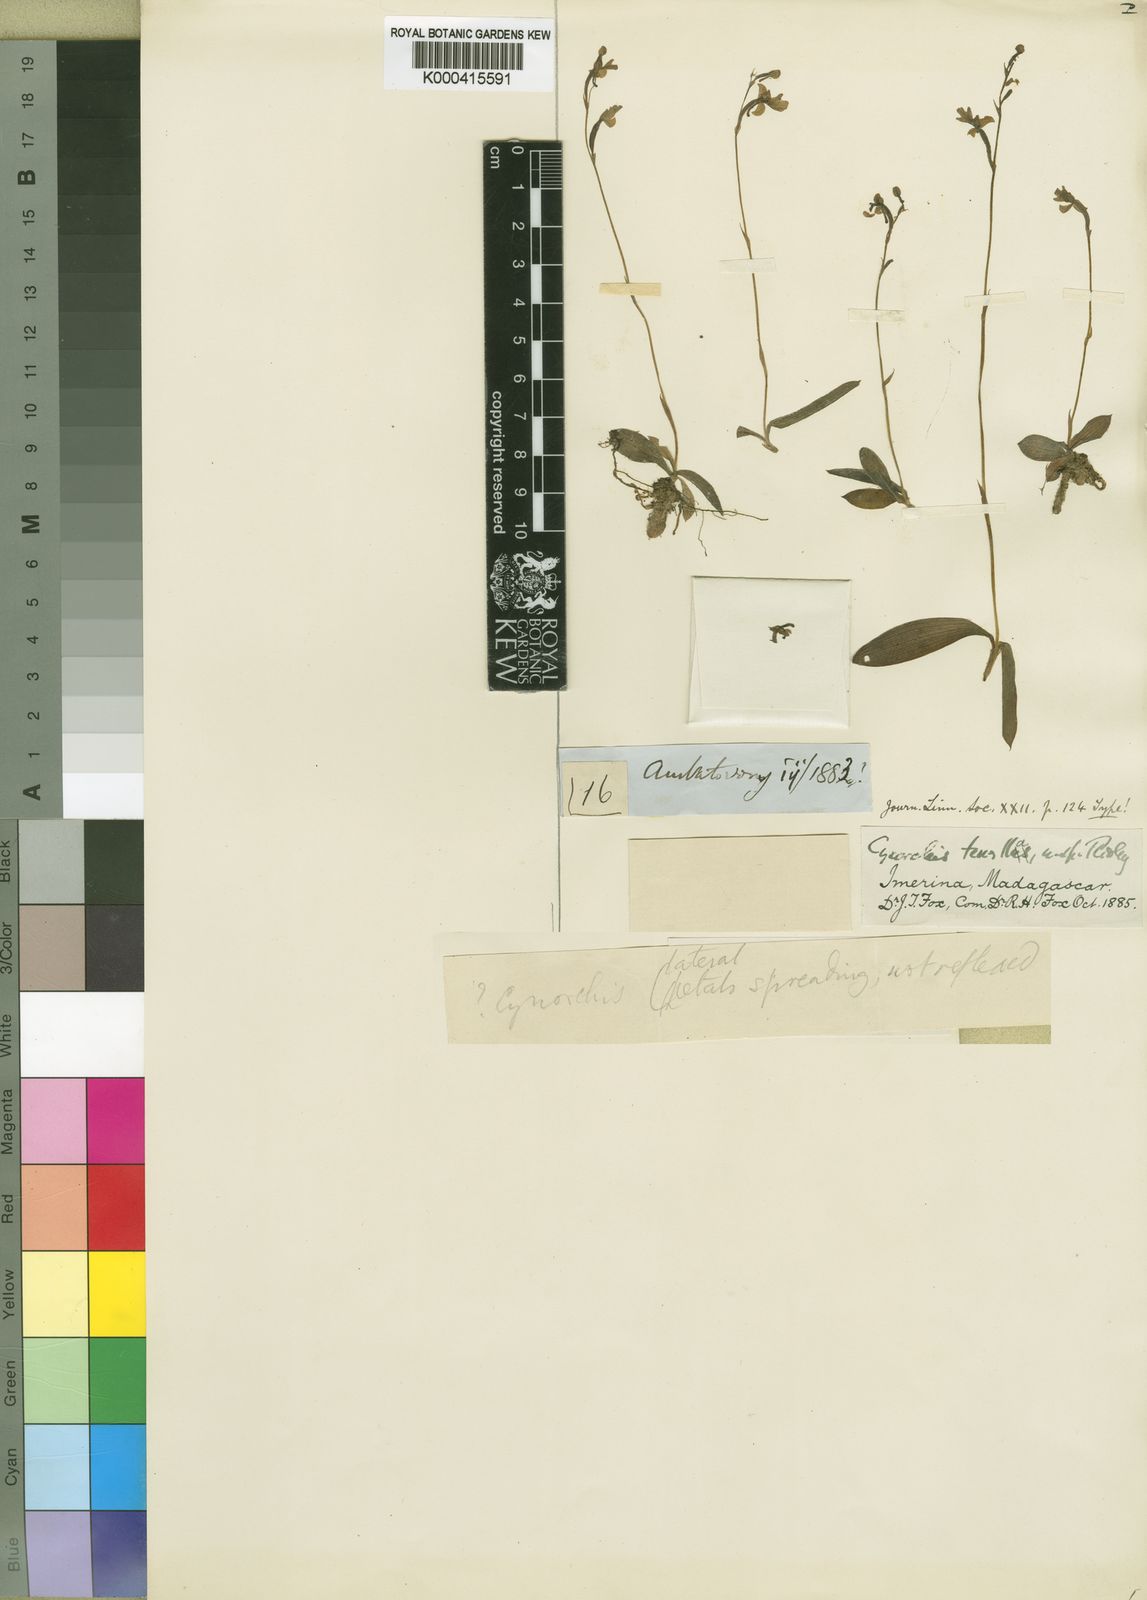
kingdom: Plantae
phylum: Tracheophyta
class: Liliopsida
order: Asparagales
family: Orchidaceae
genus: Cynorkis
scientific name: Cynorkis tenella
